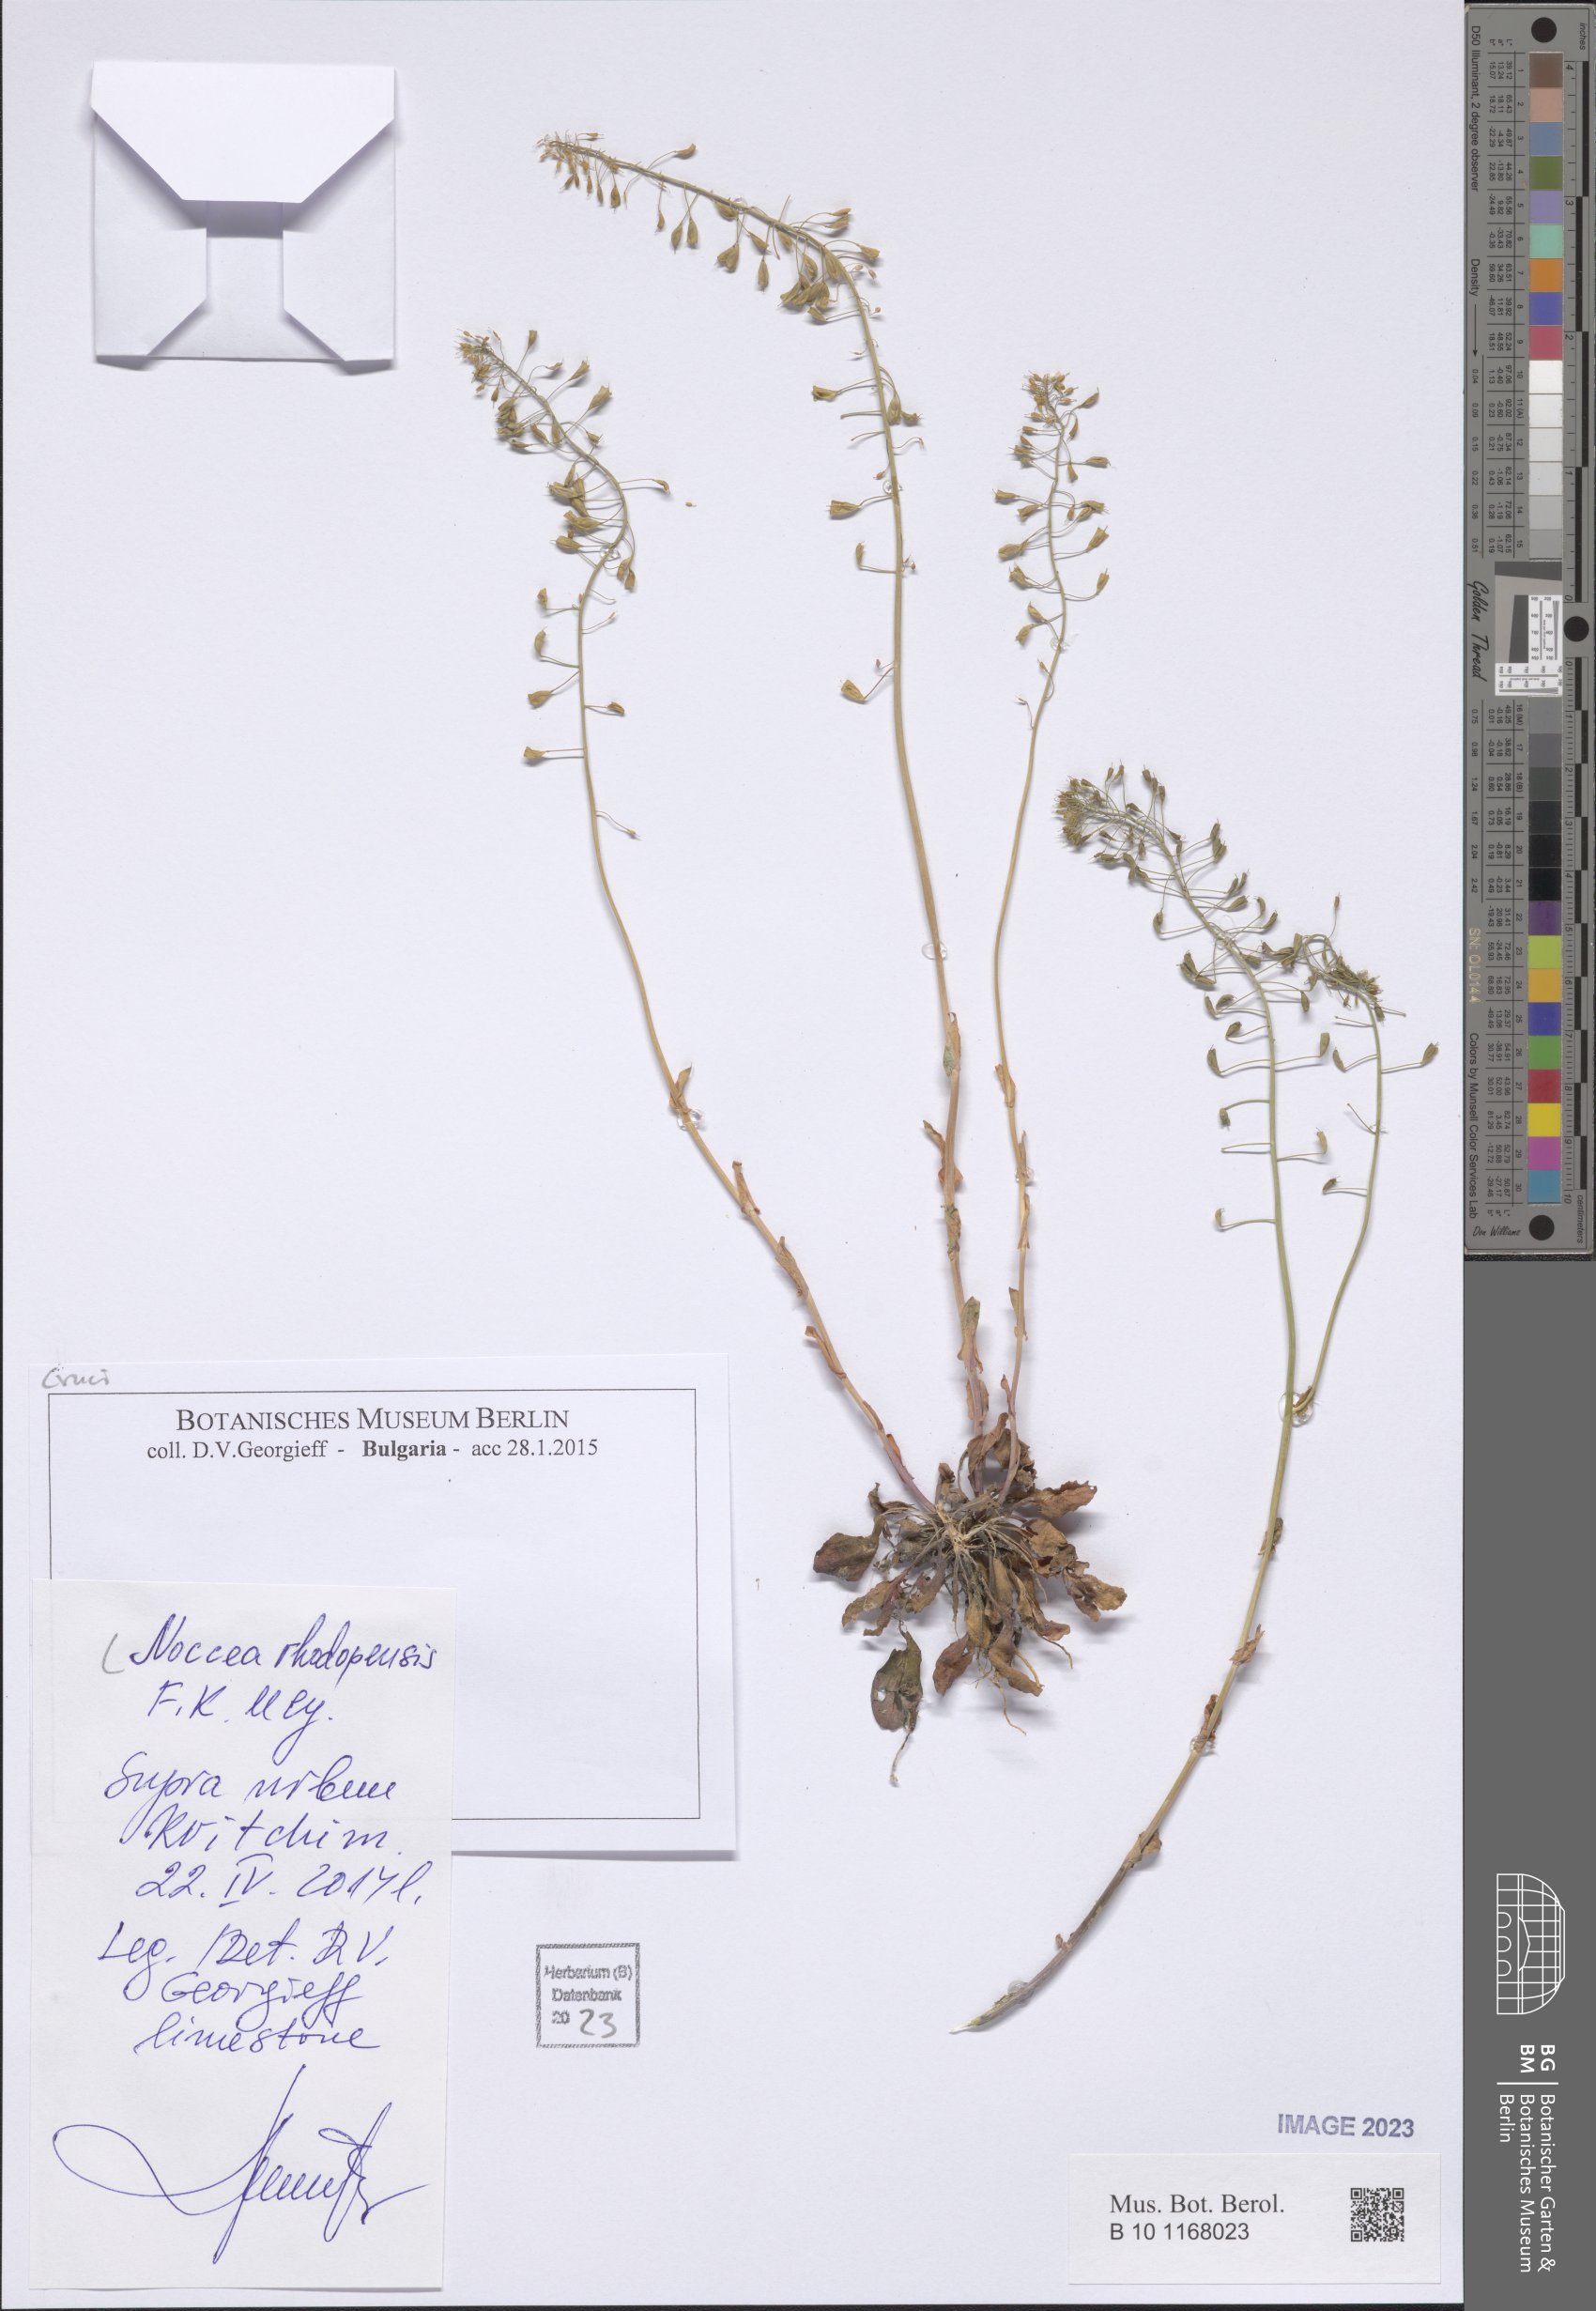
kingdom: Plantae
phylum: Tracheophyta
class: Magnoliopsida
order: Brassicales
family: Brassicaceae
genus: Noccaea
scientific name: Noccaea rhodopensis
